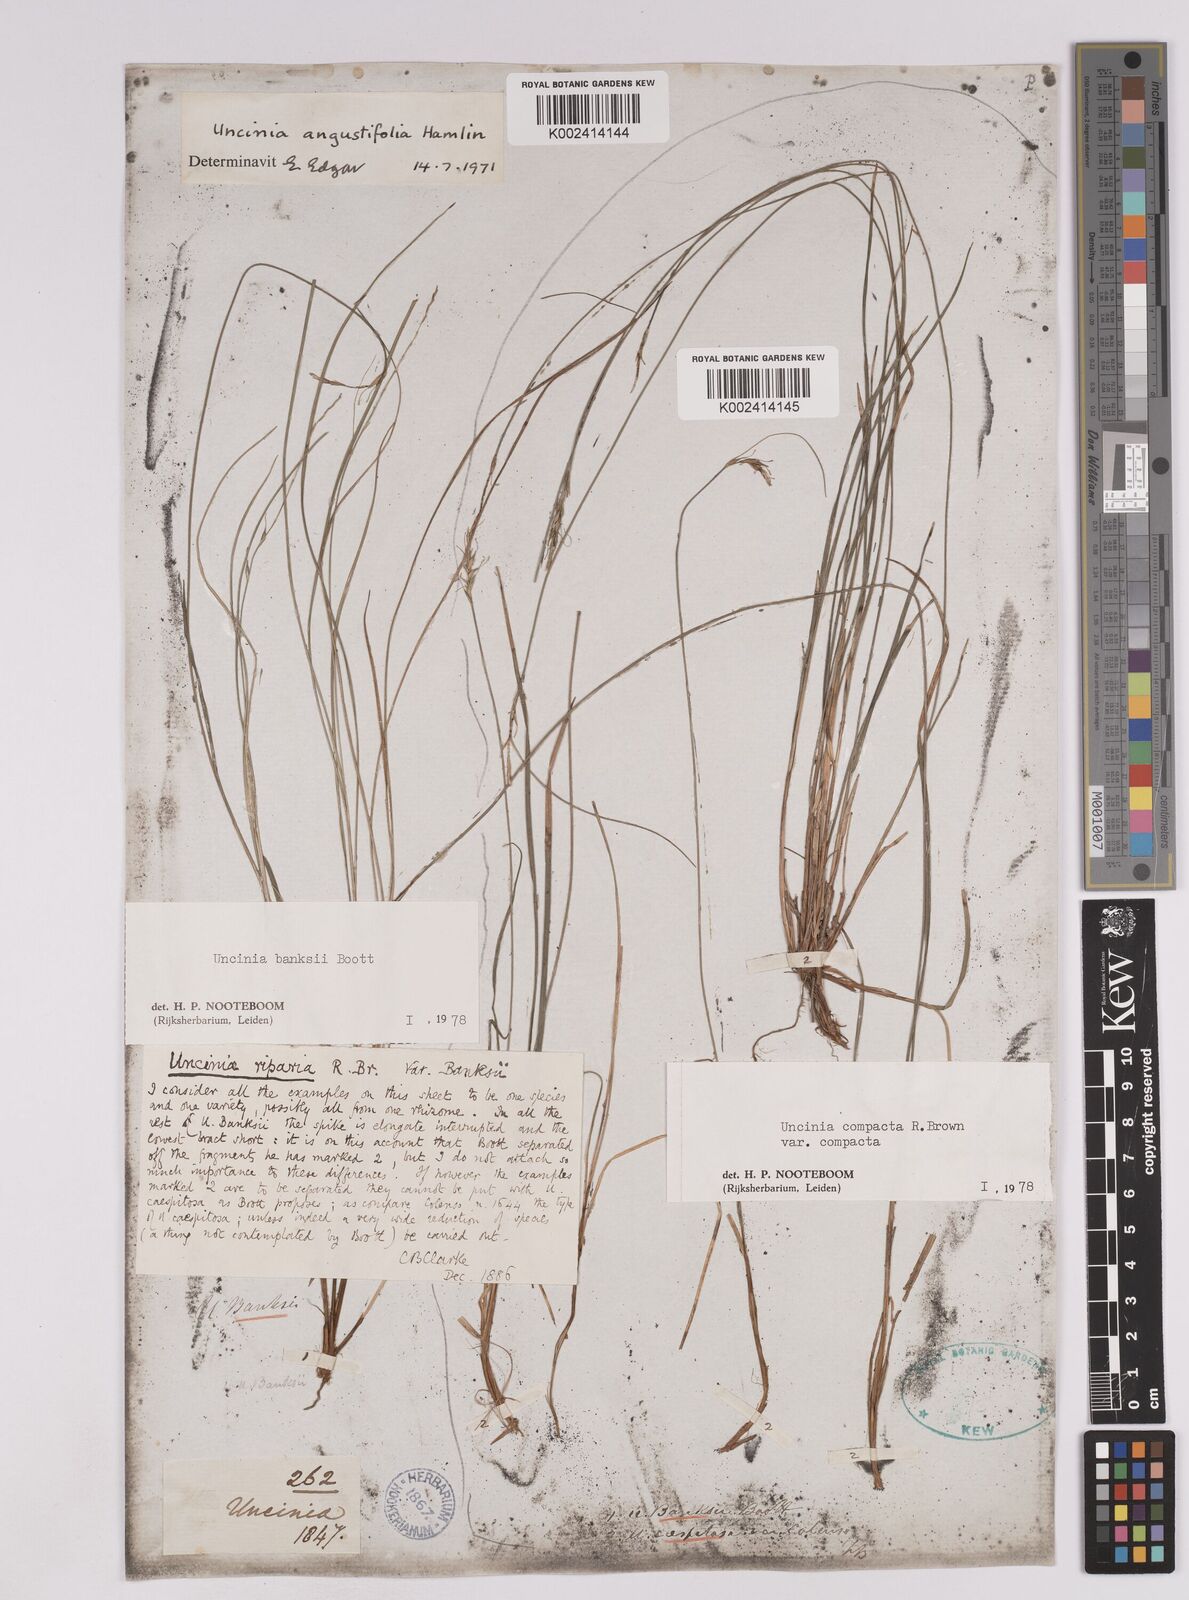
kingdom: Plantae
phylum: Tracheophyta
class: Liliopsida
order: Poales
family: Cyperaceae
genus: Carex
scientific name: Carex austrocompacta
